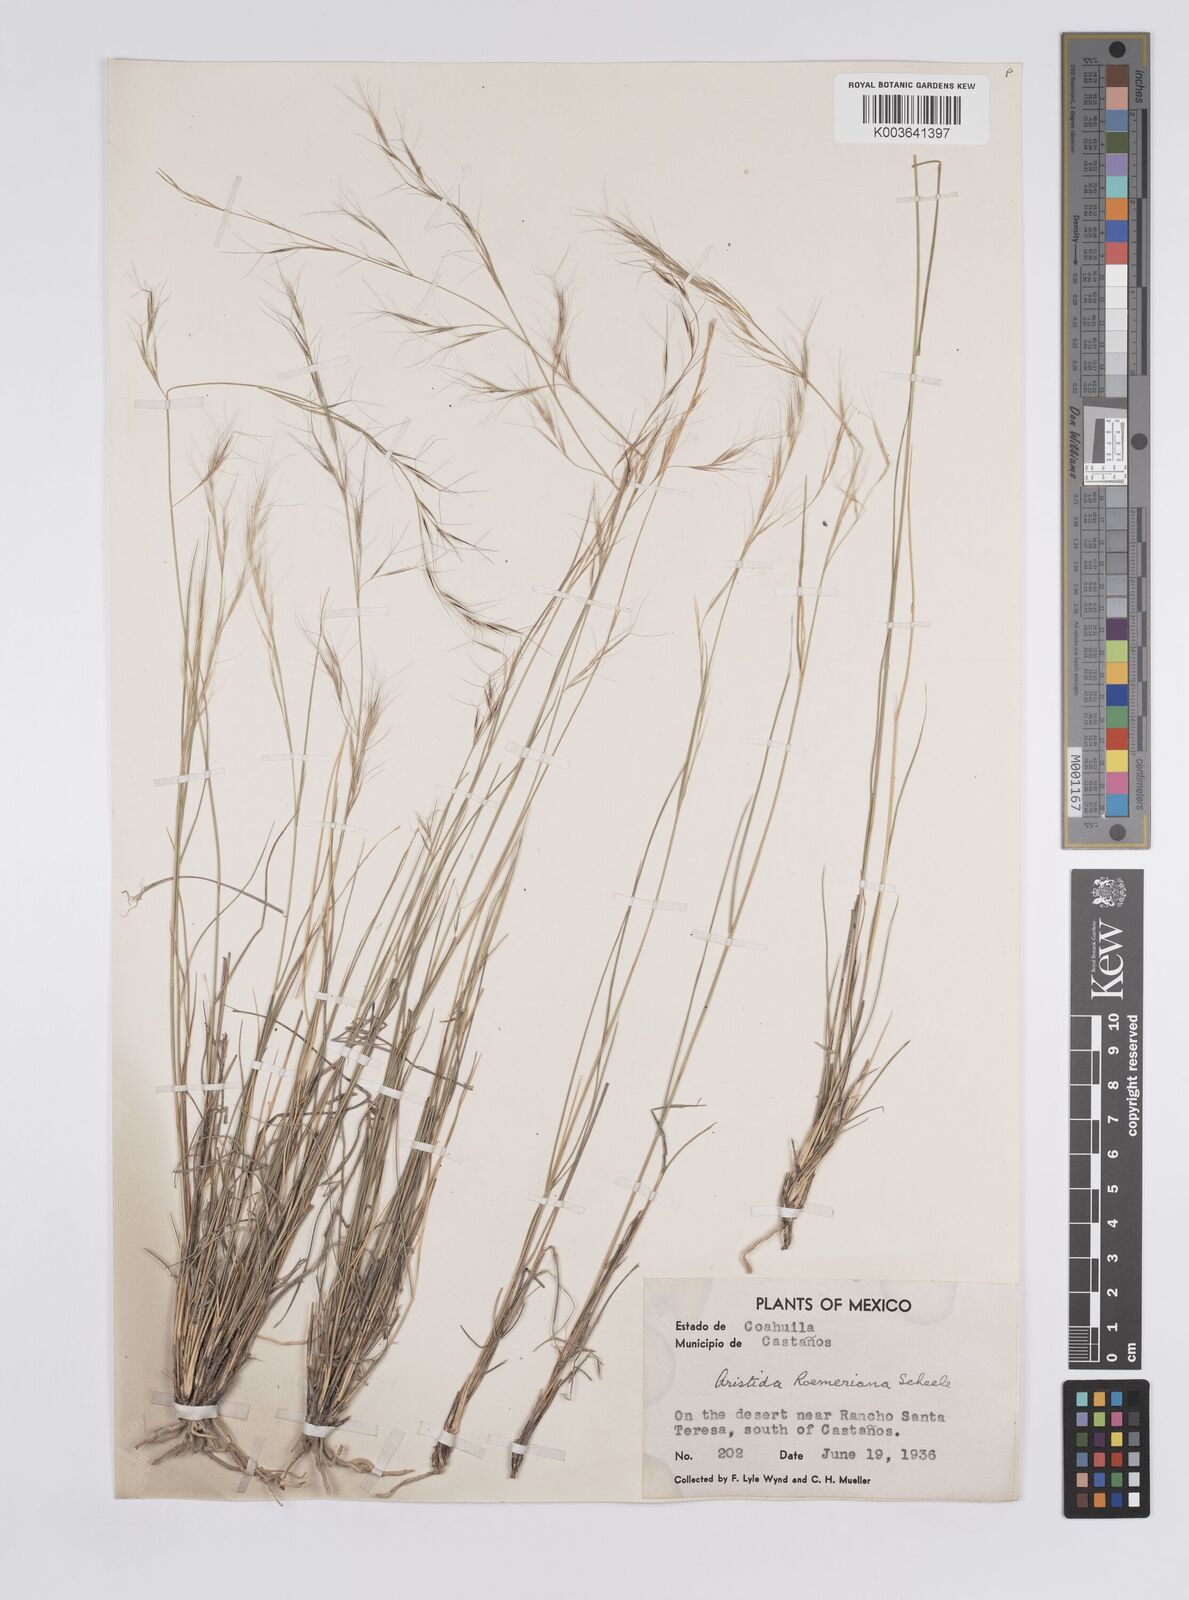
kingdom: Plantae
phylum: Tracheophyta
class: Liliopsida
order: Poales
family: Poaceae
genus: Aristida
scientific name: Aristida purpurea
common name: Purple threeawn
